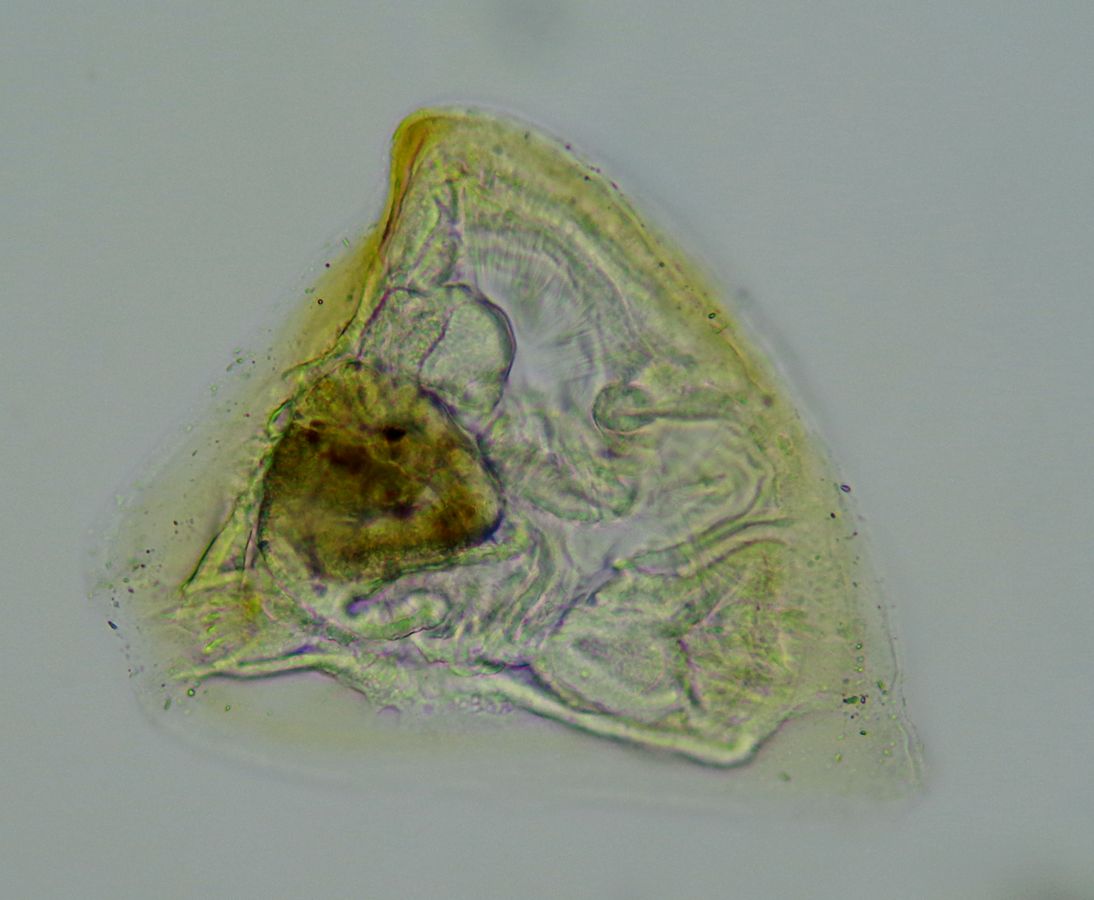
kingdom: Animalia
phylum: Bryozoa
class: Gymnolaemata
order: Cheilostomatida
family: Electridae
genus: Electra
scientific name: Electra pilosa
